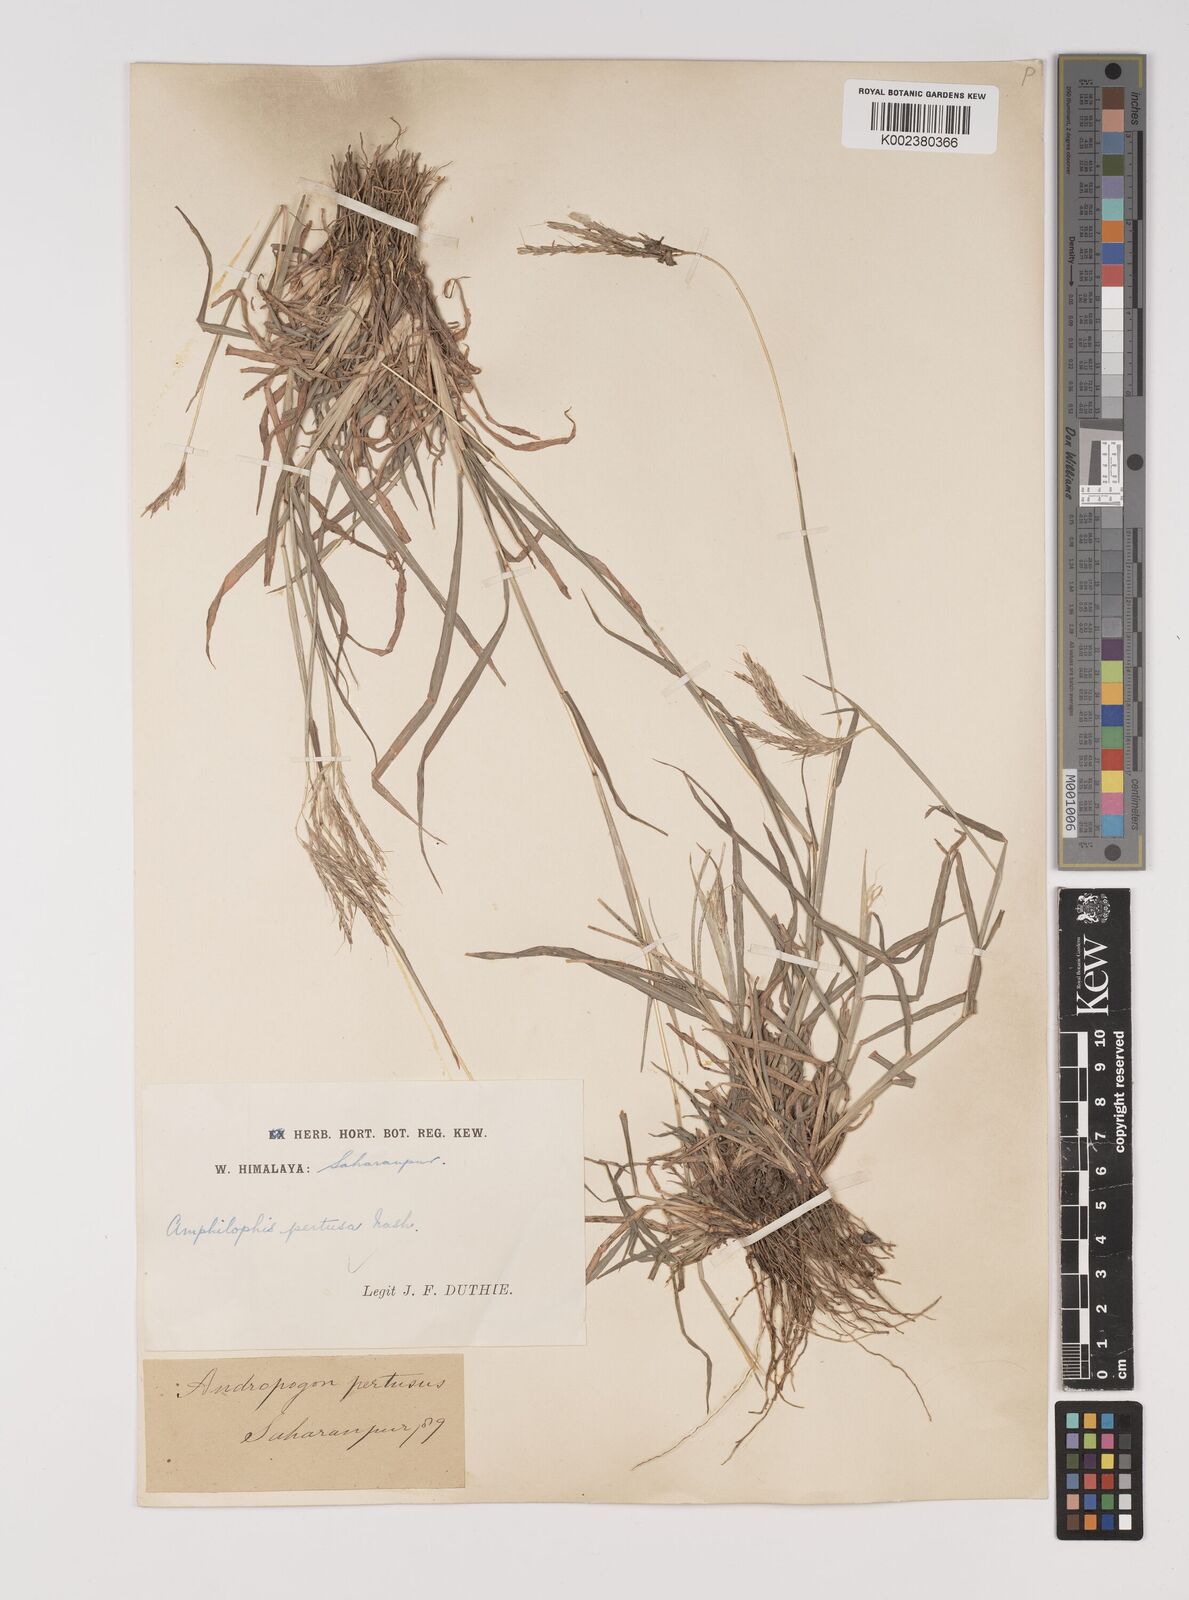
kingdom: Plantae
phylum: Tracheophyta
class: Liliopsida
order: Poales
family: Poaceae
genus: Bothriochloa
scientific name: Bothriochloa pertusa
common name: Pitted beardgrass
